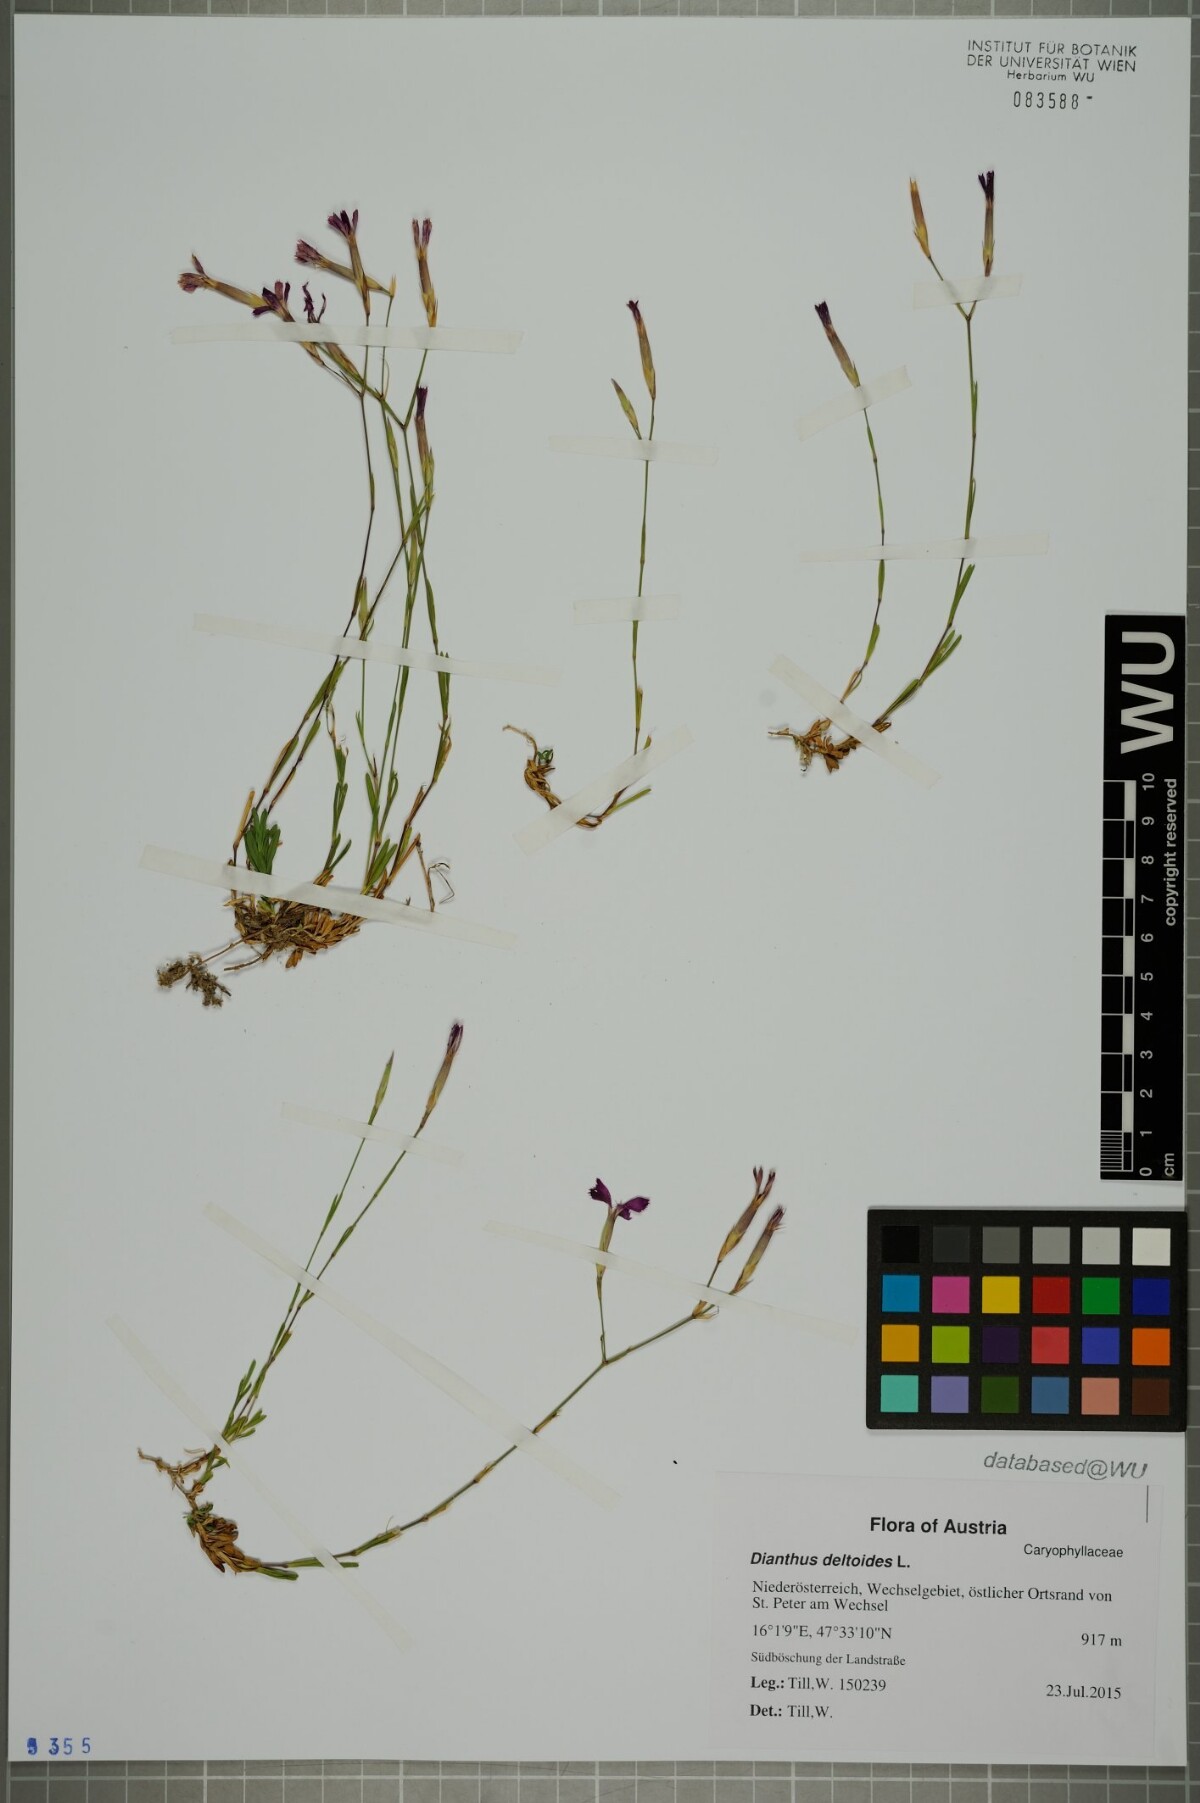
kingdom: Plantae
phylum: Tracheophyta
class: Magnoliopsida
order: Caryophyllales
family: Caryophyllaceae
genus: Dianthus
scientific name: Dianthus deltoides
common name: Maiden pink
